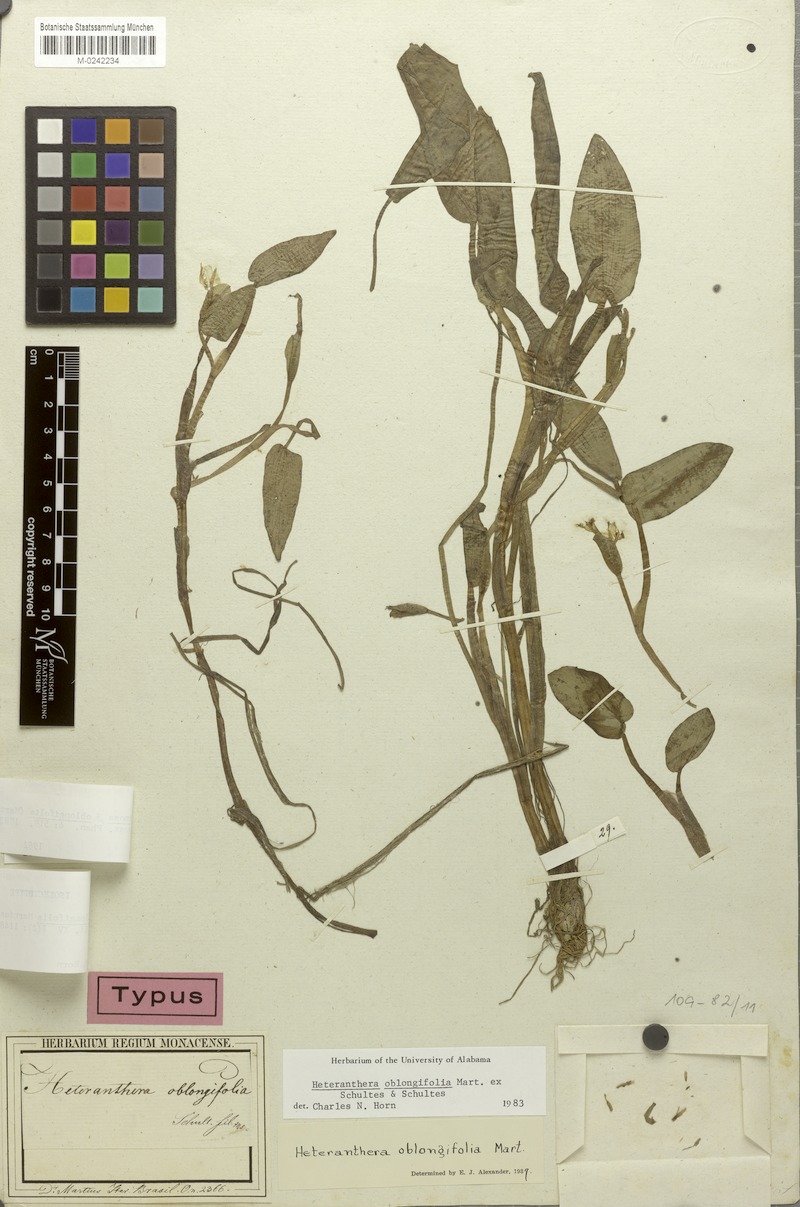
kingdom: Plantae
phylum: Tracheophyta
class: Liliopsida
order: Commelinales
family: Pontederiaceae
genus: Heteranthera
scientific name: Heteranthera oblongifolia
